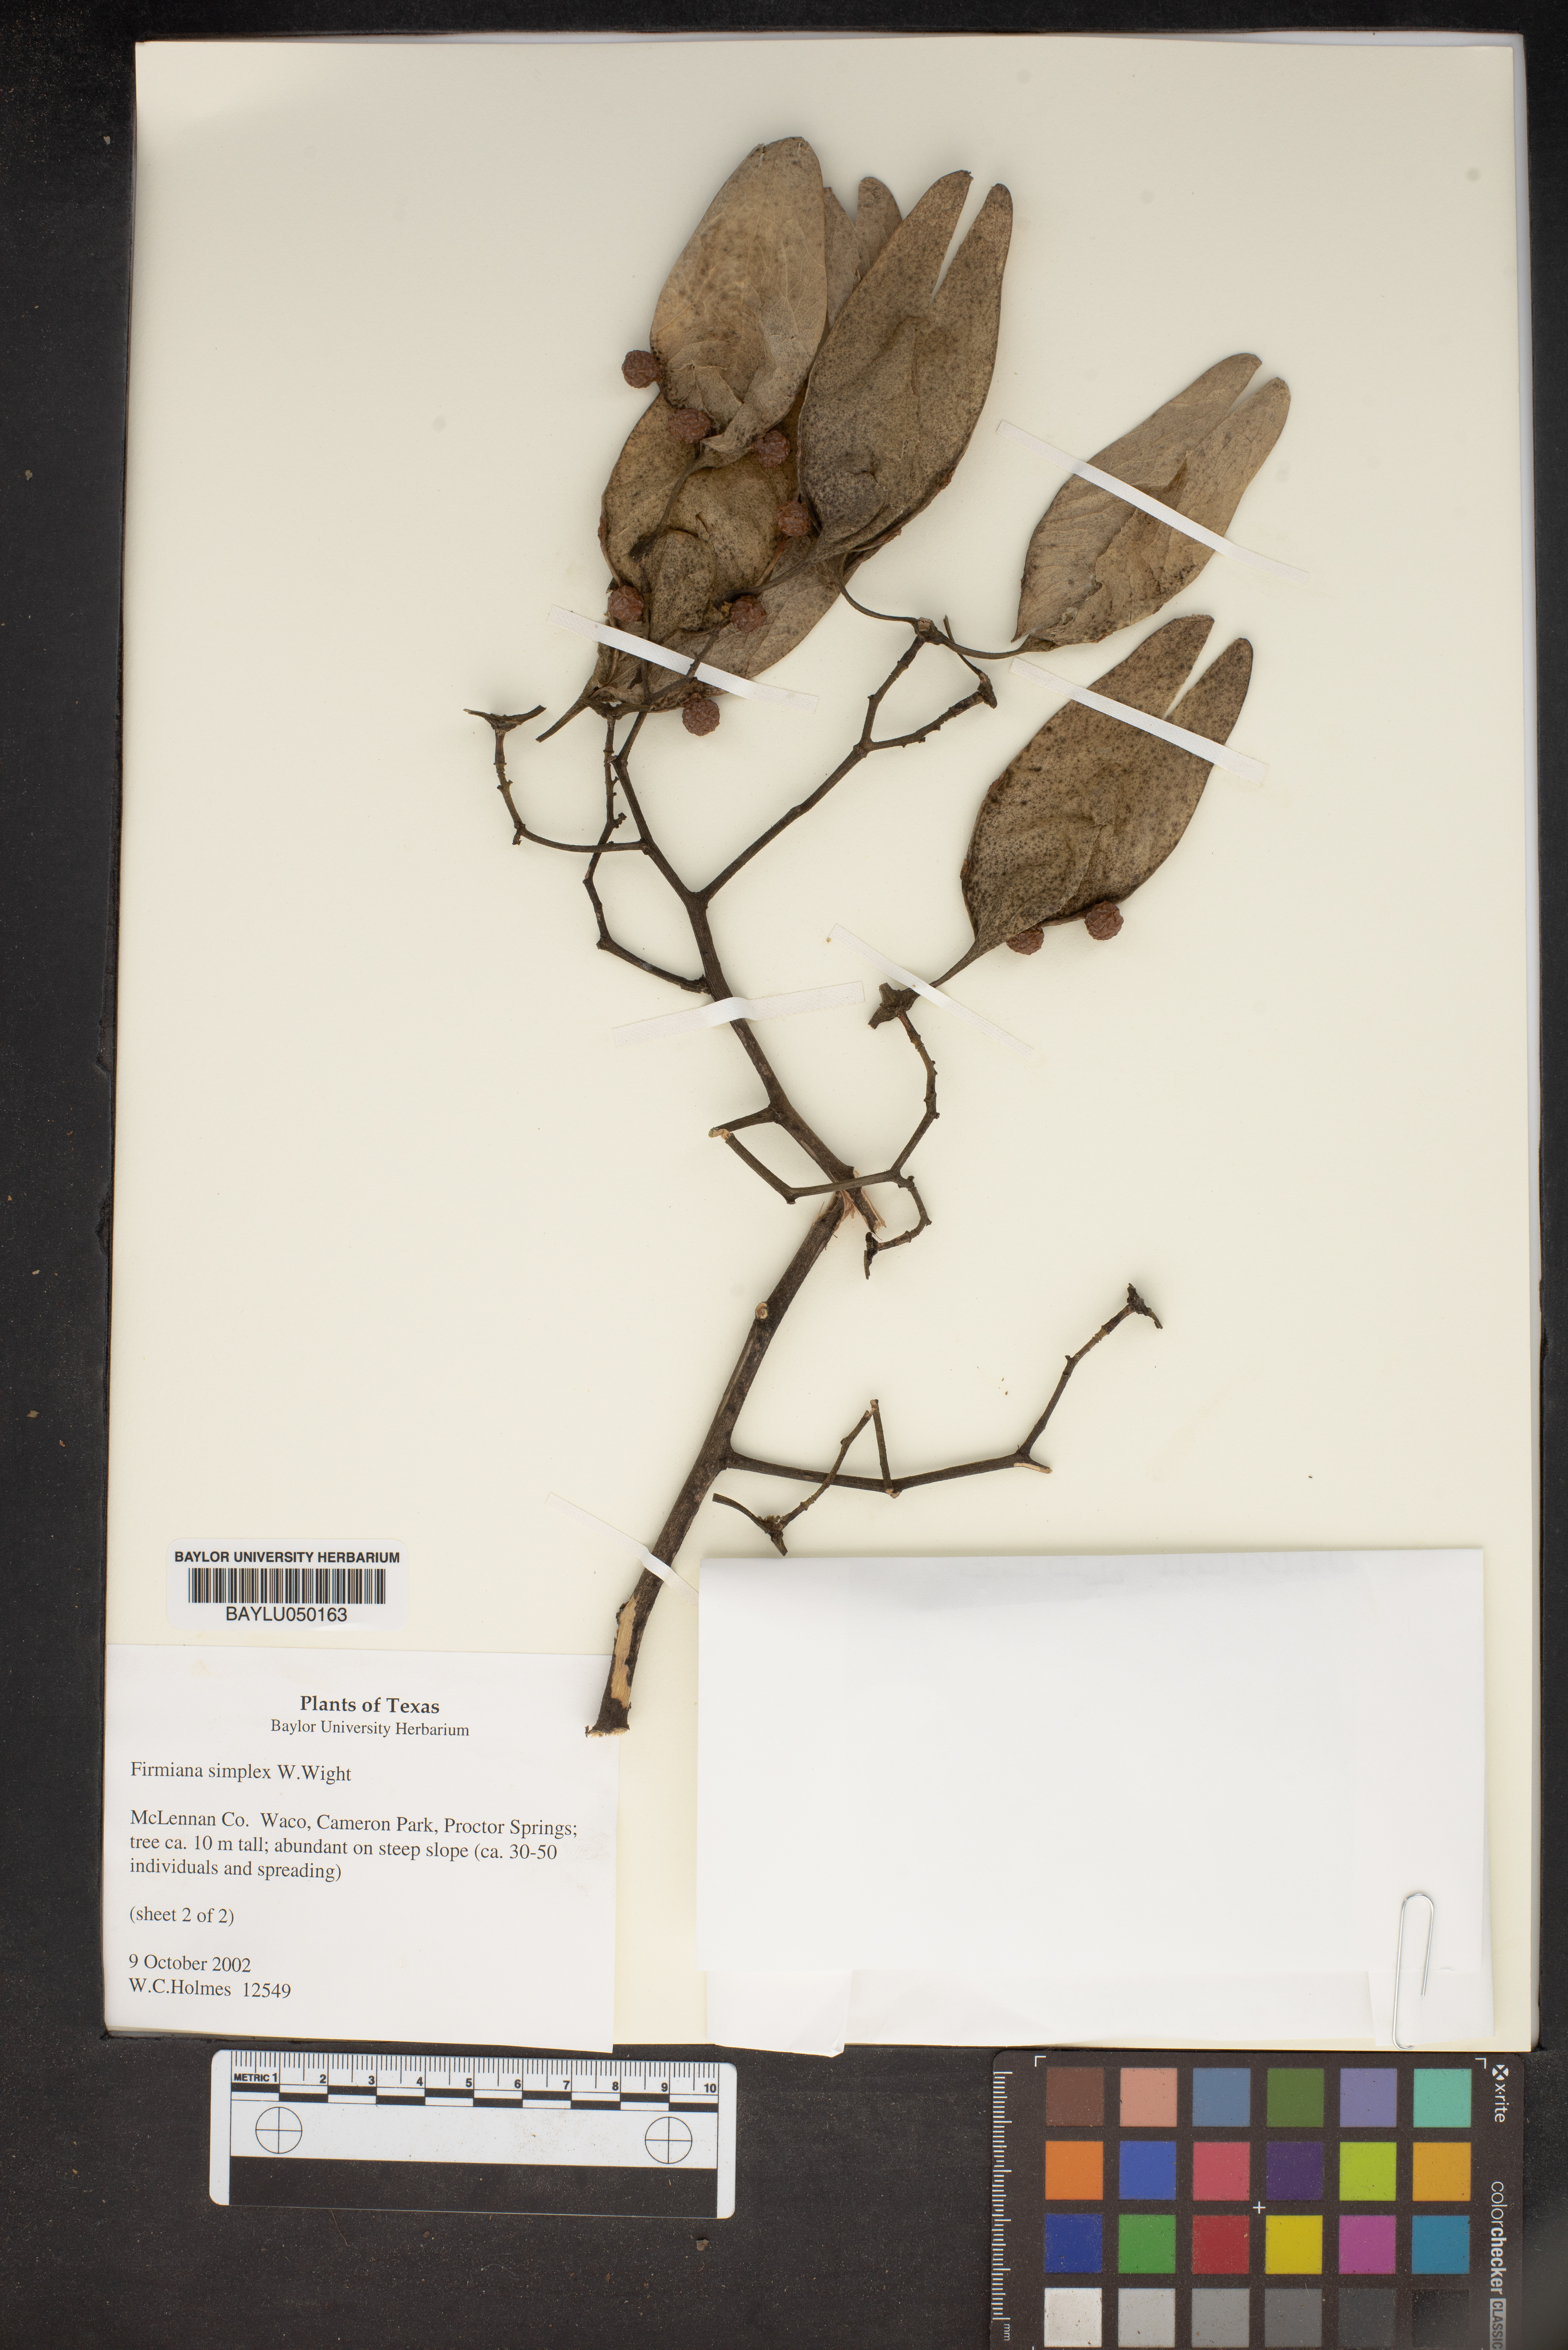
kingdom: Plantae
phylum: Tracheophyta
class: Magnoliopsida
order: Malvales
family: Malvaceae
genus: Firmiana
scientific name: Firmiana simplex
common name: Chinese parasoltree
